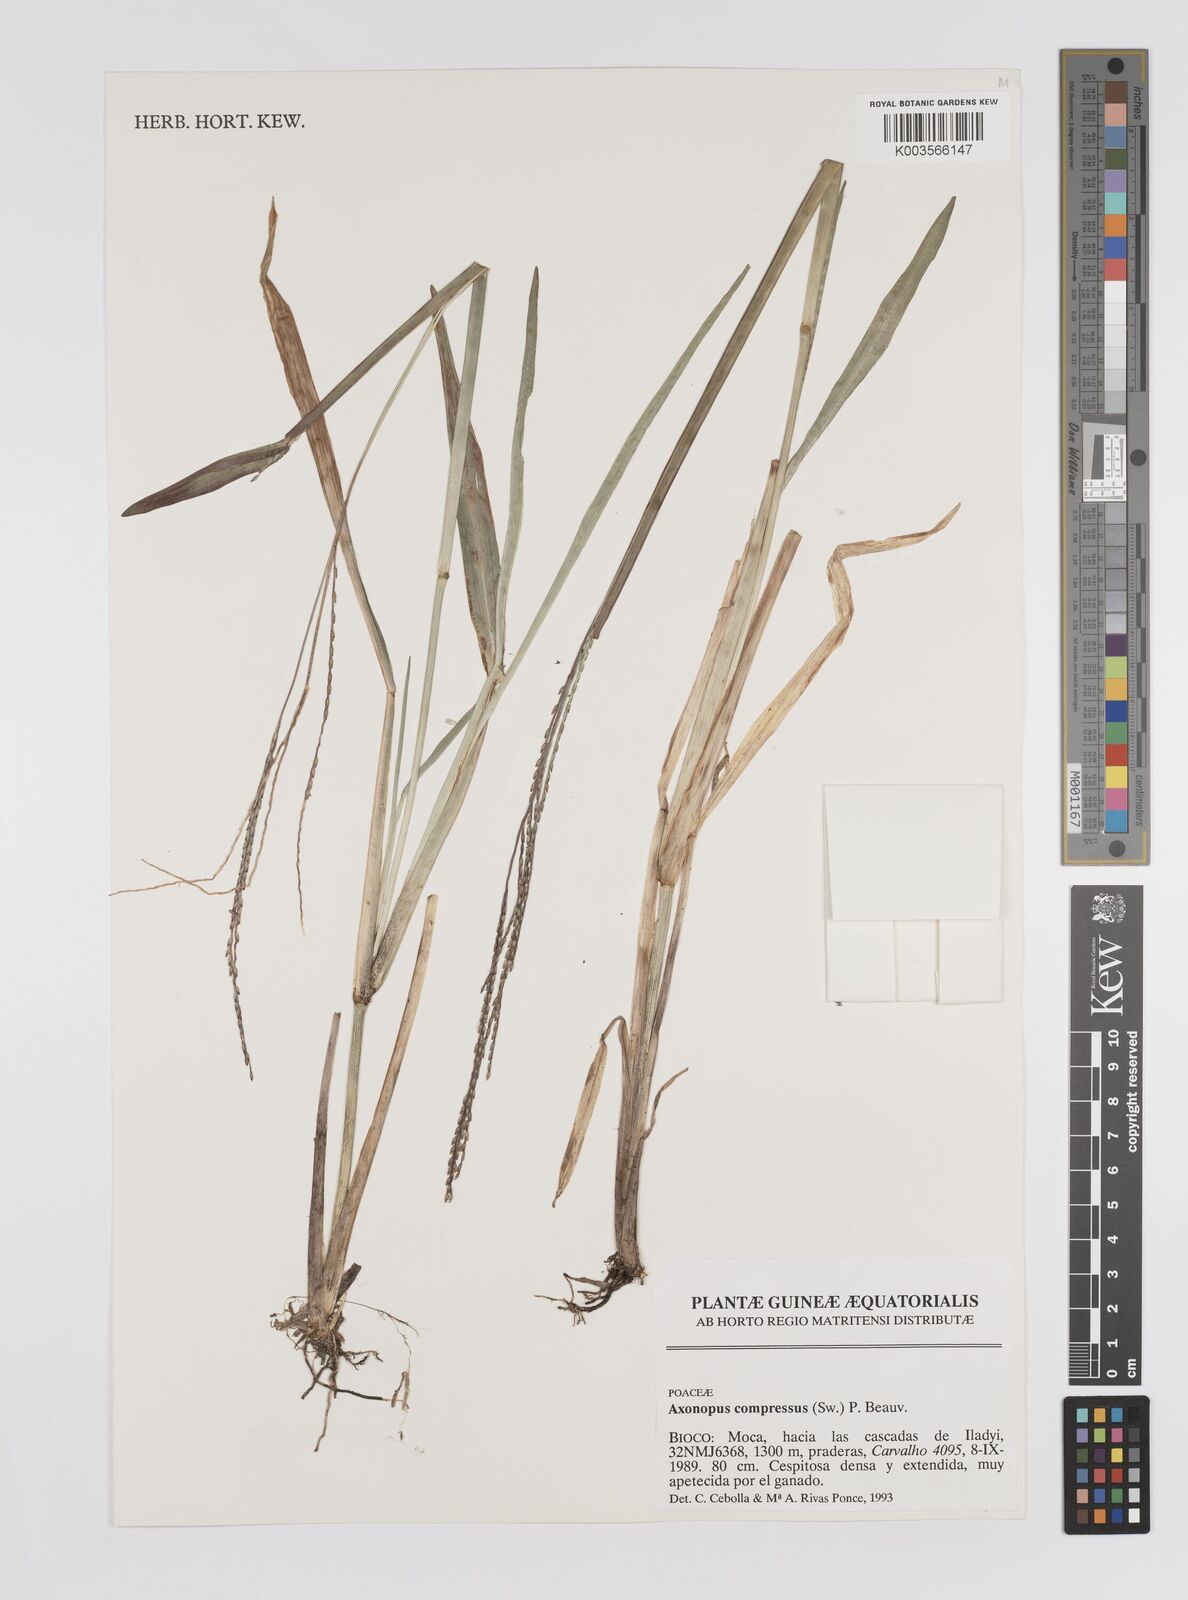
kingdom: Plantae
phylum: Tracheophyta
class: Liliopsida
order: Poales
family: Poaceae
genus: Axonopus
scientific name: Axonopus compressus
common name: American carpet grass
